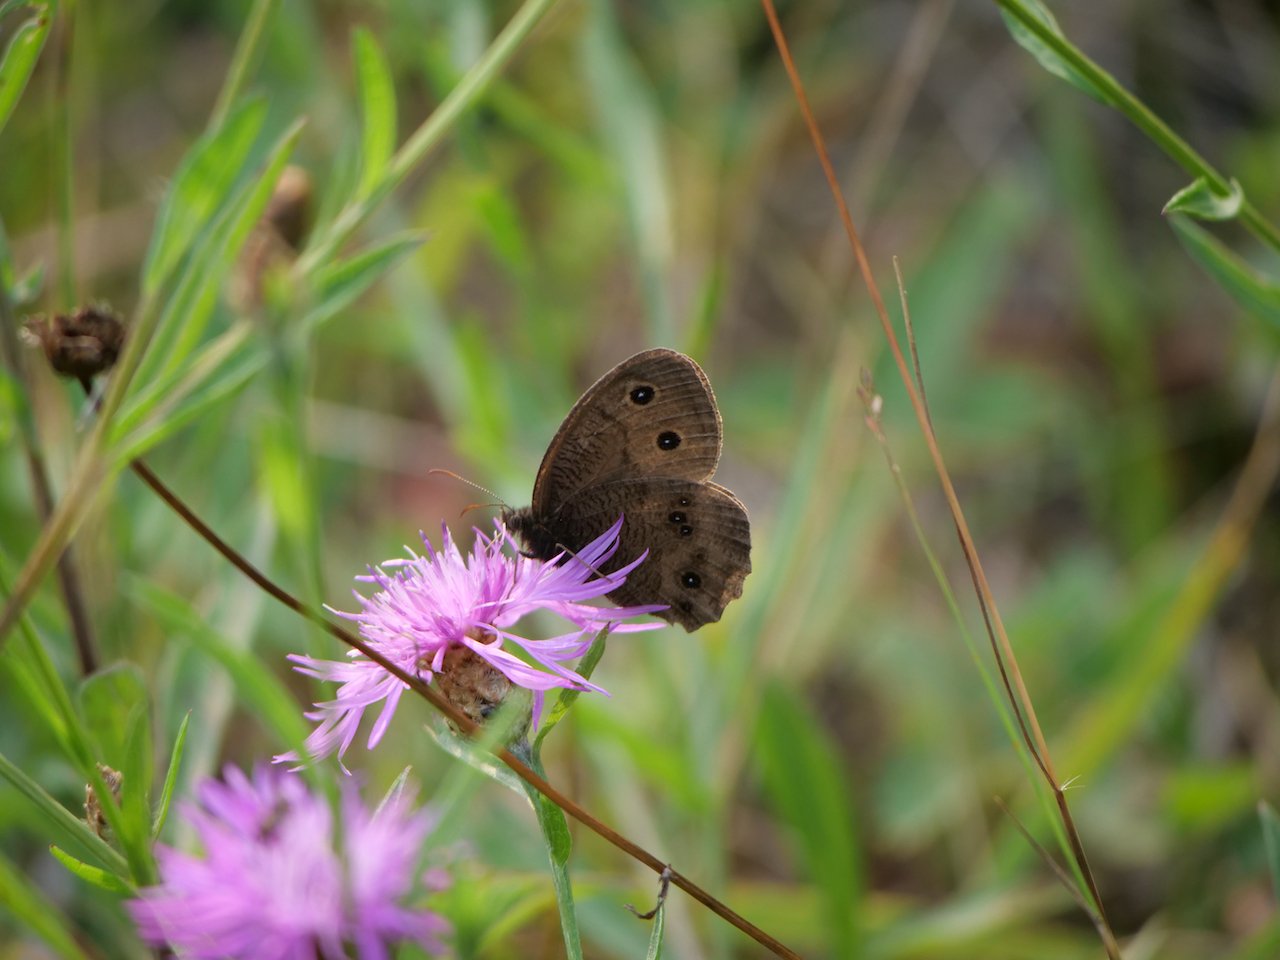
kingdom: Animalia
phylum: Arthropoda
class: Insecta
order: Lepidoptera
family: Nymphalidae
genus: Cercyonis
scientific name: Cercyonis pegala
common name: Common Wood-Nymph
